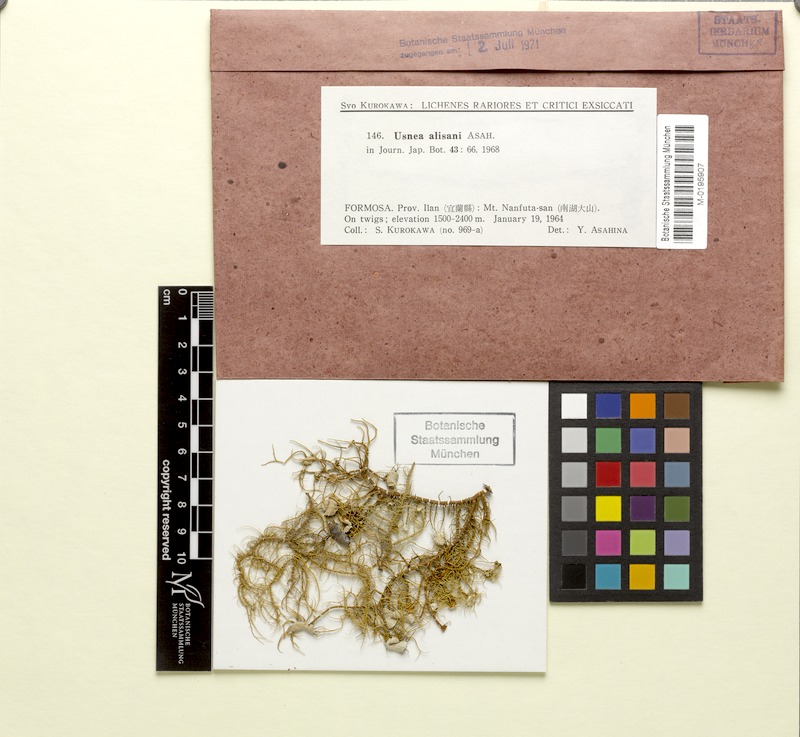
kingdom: Fungi
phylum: Ascomycota
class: Lecanoromycetes
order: Lecanorales
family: Parmeliaceae
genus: Usnea
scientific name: Usnea alisani
